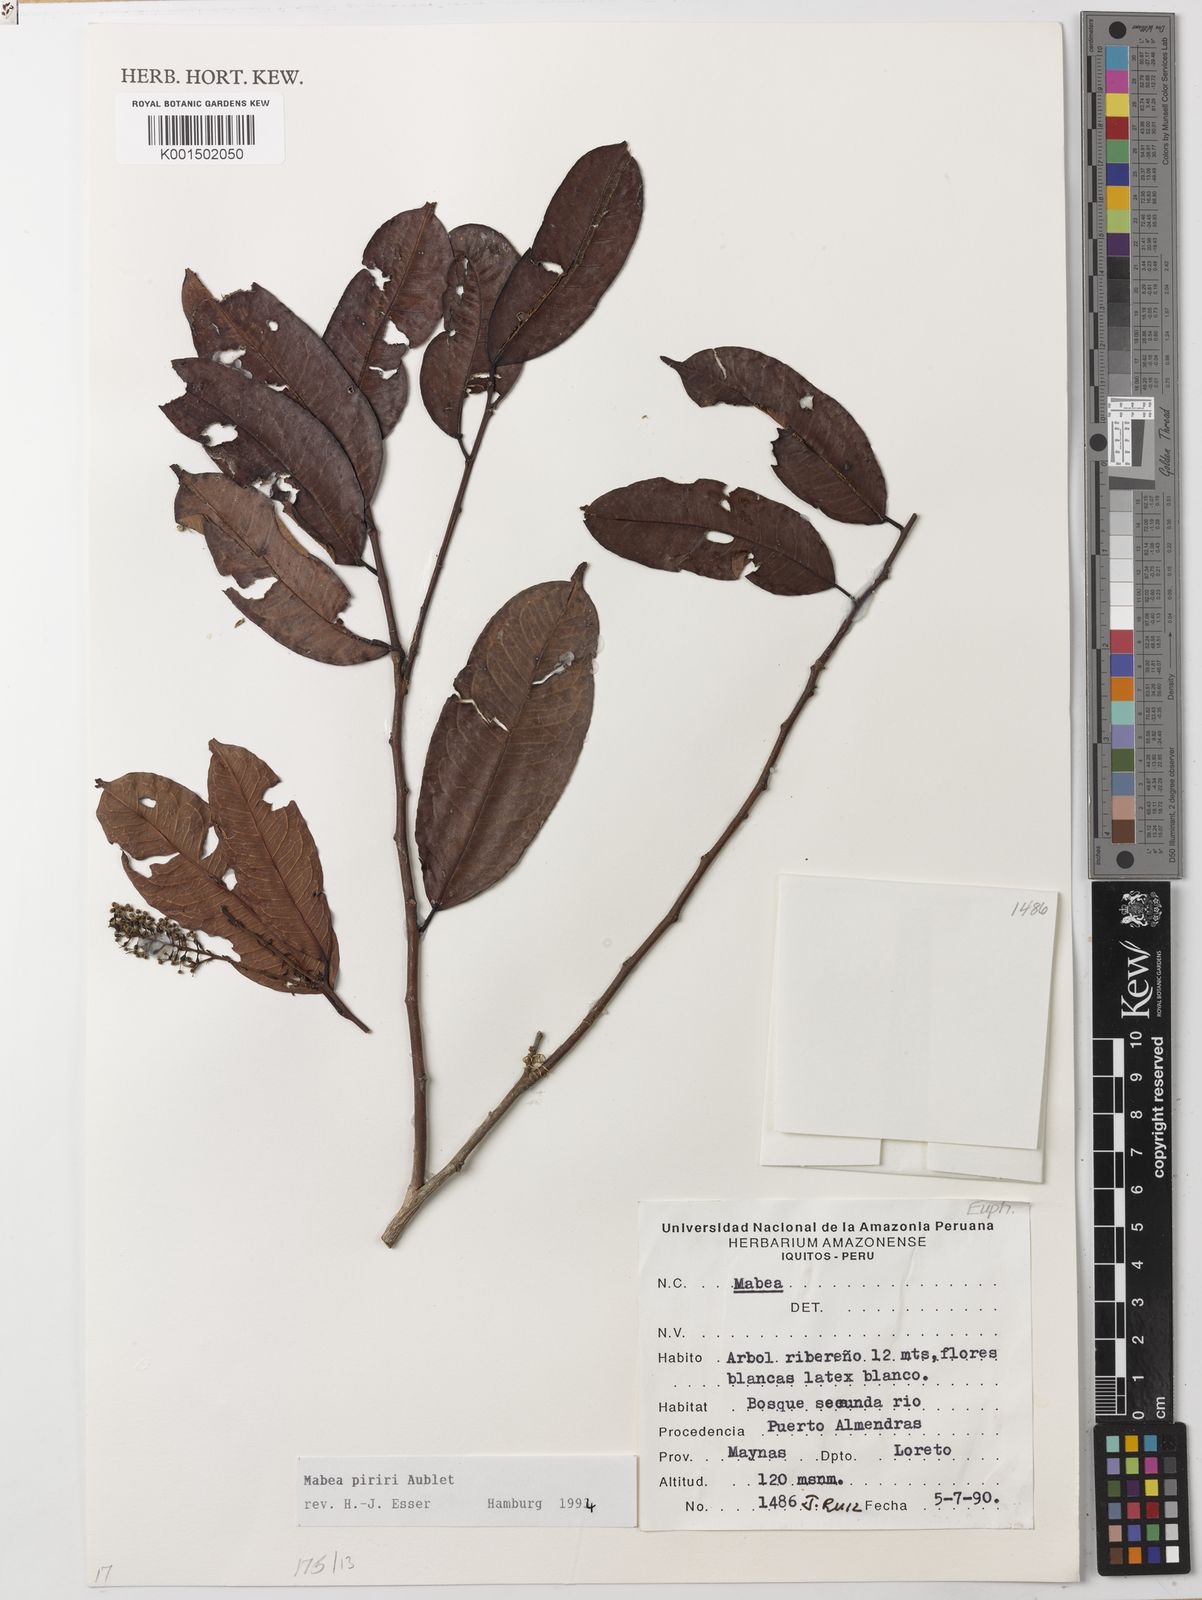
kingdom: Plantae
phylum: Tracheophyta
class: Magnoliopsida
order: Malpighiales
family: Euphorbiaceae
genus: Mabea
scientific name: Mabea piriri
